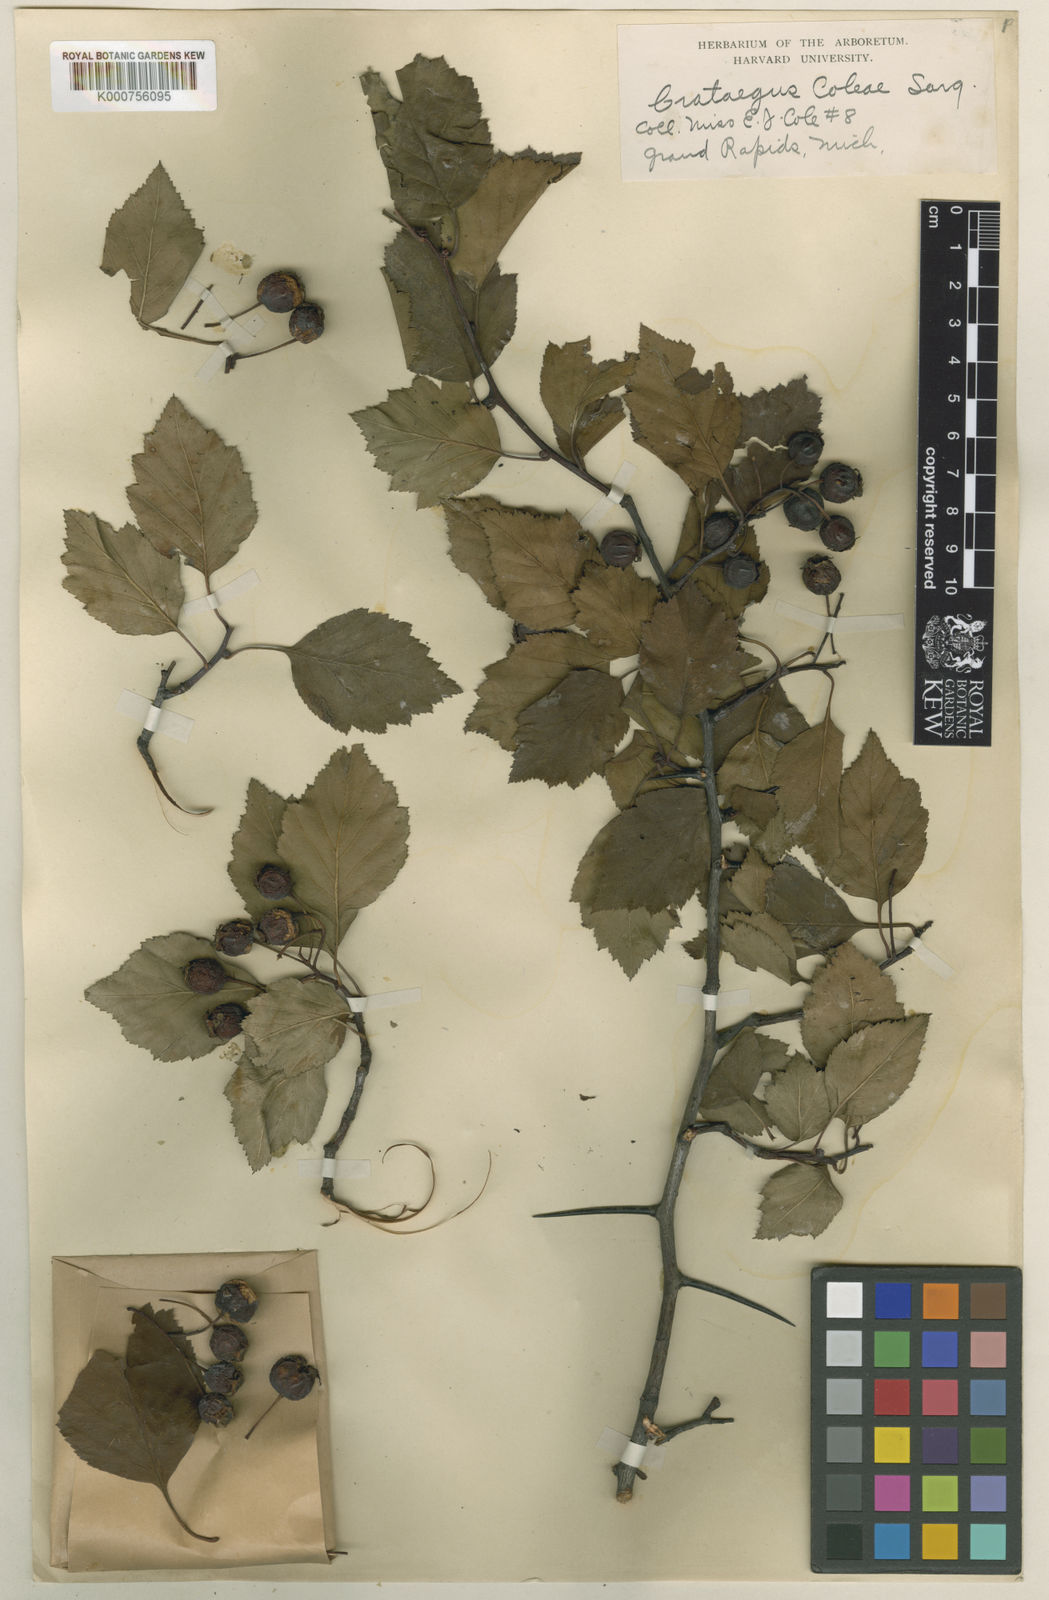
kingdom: Plantae
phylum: Tracheophyta
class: Magnoliopsida
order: Rosales
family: Rosaceae
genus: Crataegus
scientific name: Crataegus coleae
